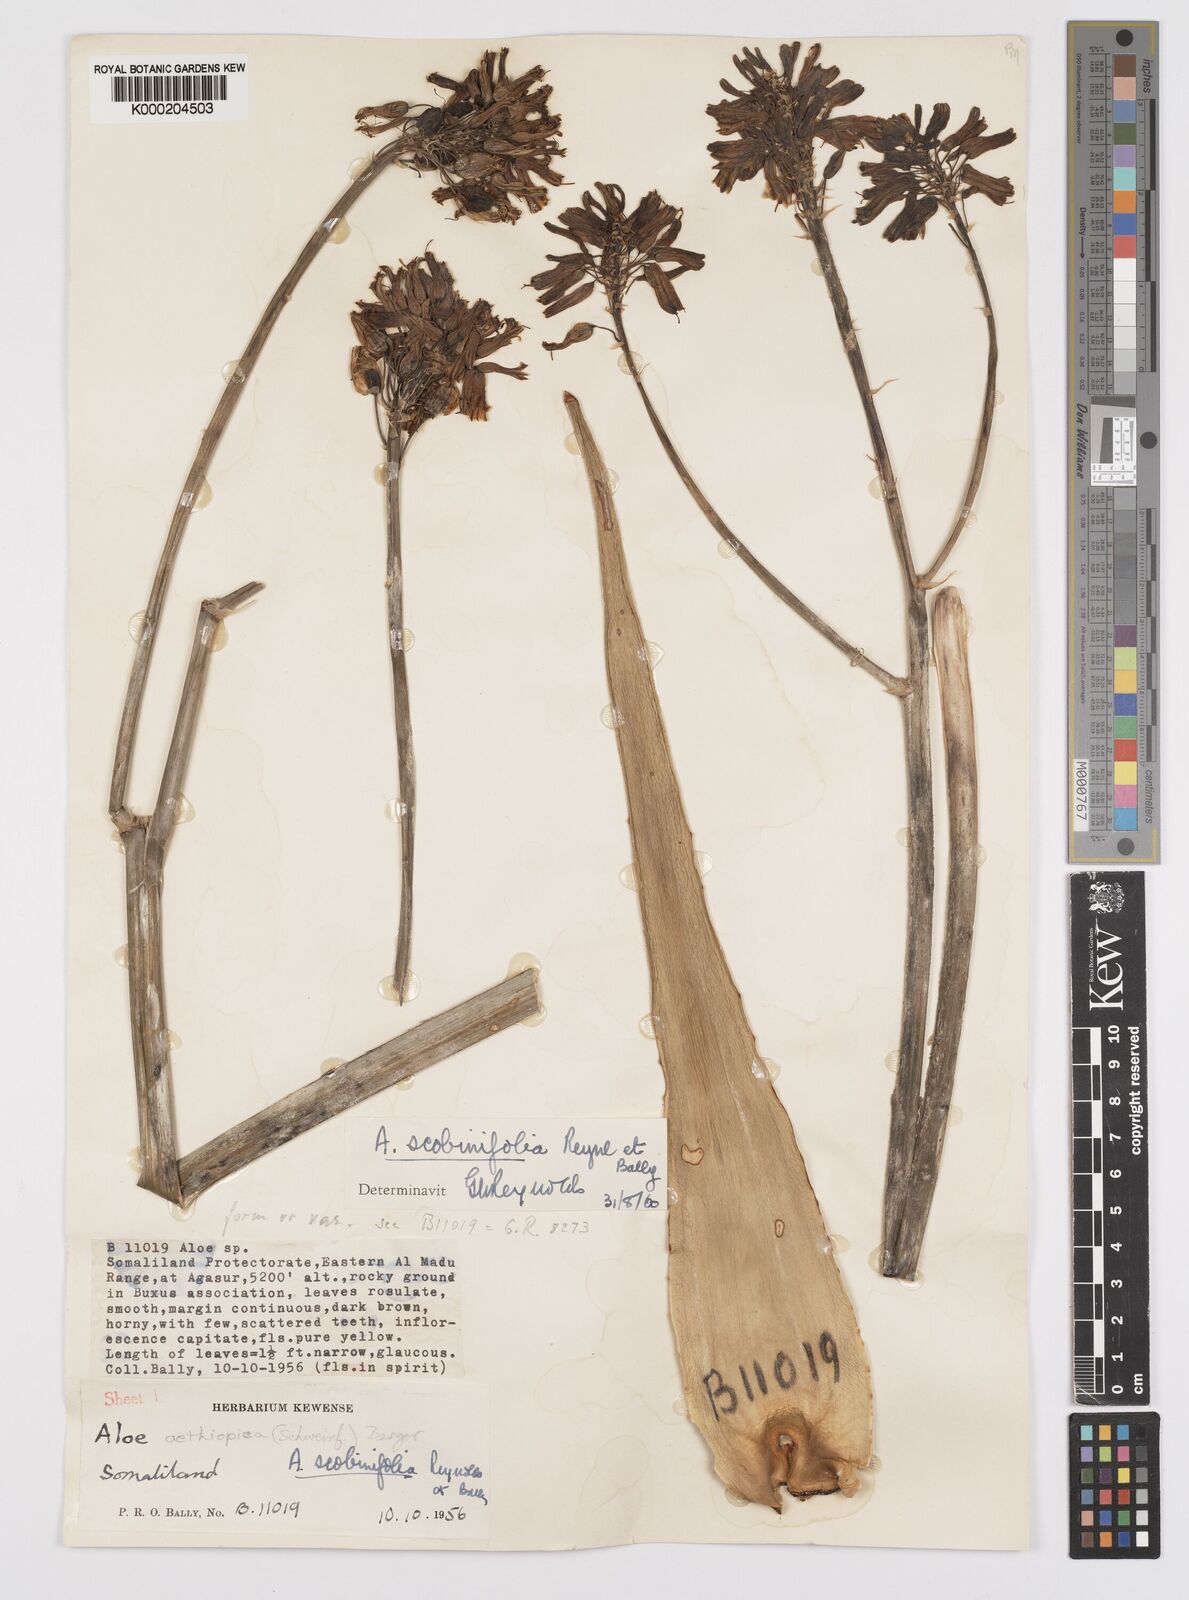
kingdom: Plantae
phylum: Tracheophyta
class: Liliopsida
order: Asparagales
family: Asphodelaceae
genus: Aloe
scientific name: Aloe scobinifolia
